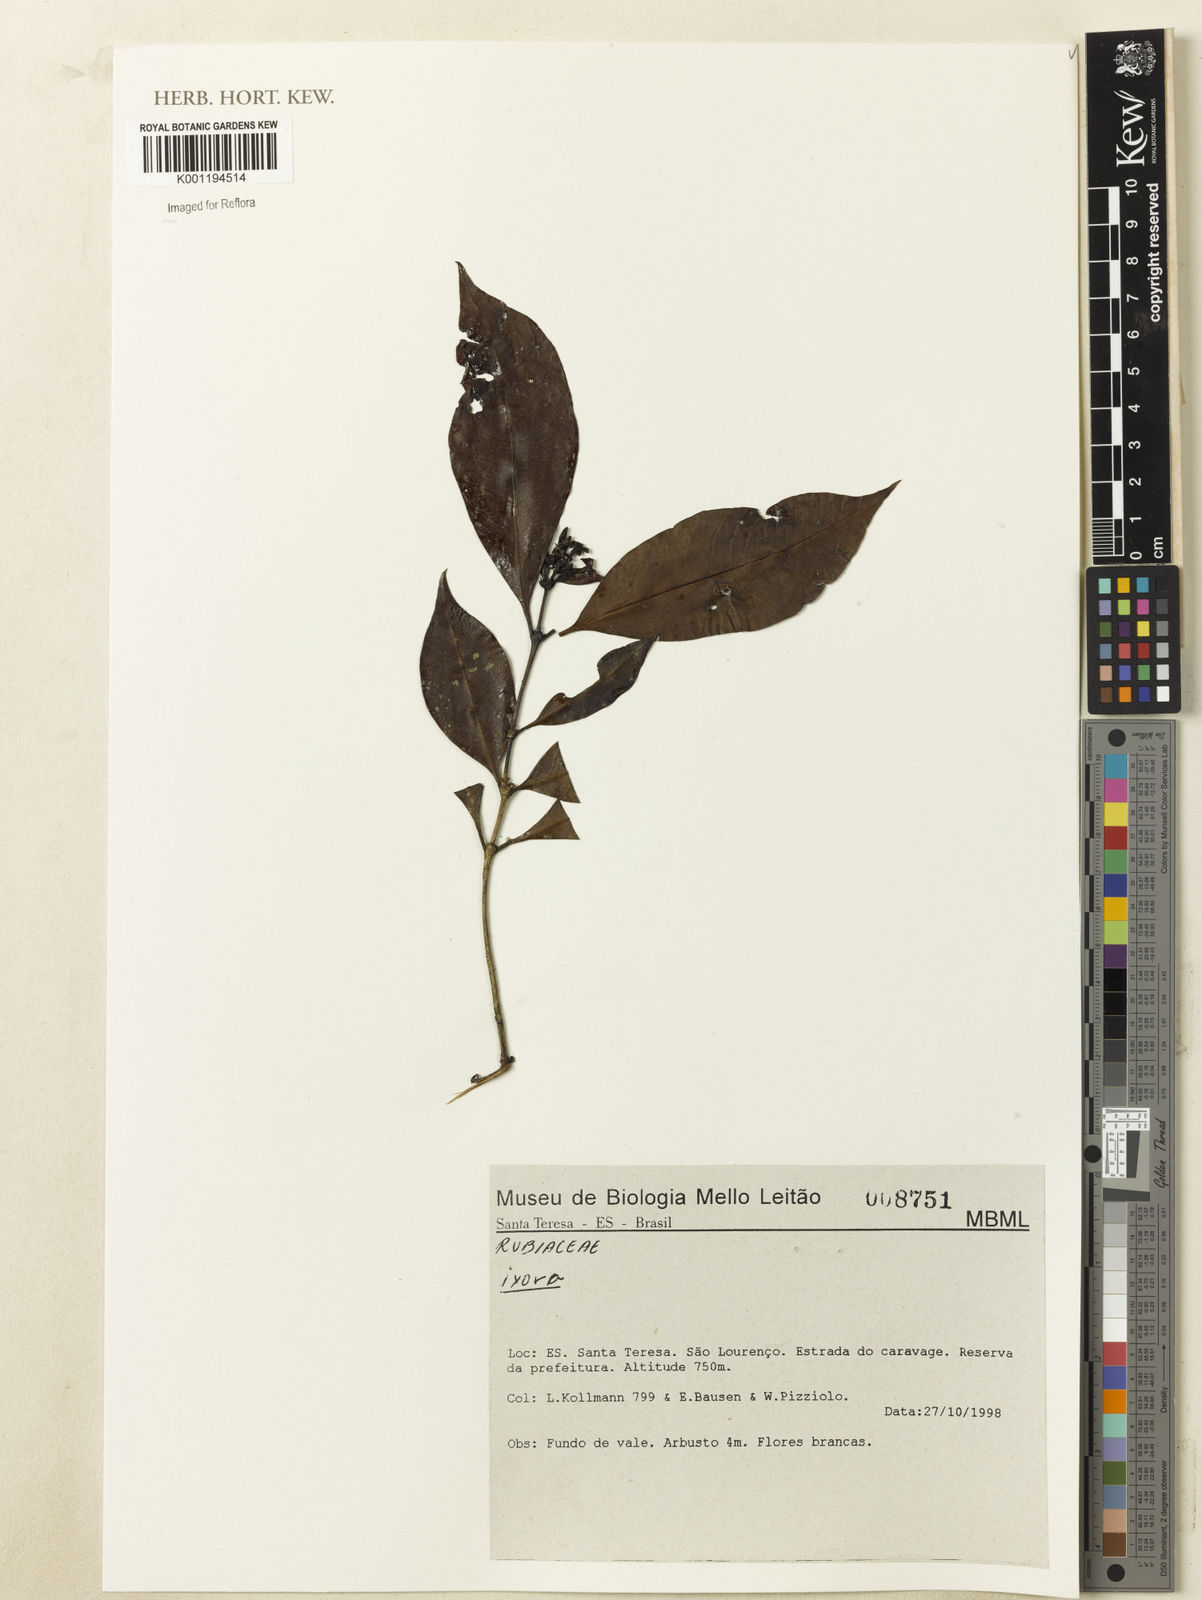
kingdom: Plantae
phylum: Tracheophyta
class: Magnoliopsida
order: Gentianales
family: Rubiaceae
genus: Ixora
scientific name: Ixora
